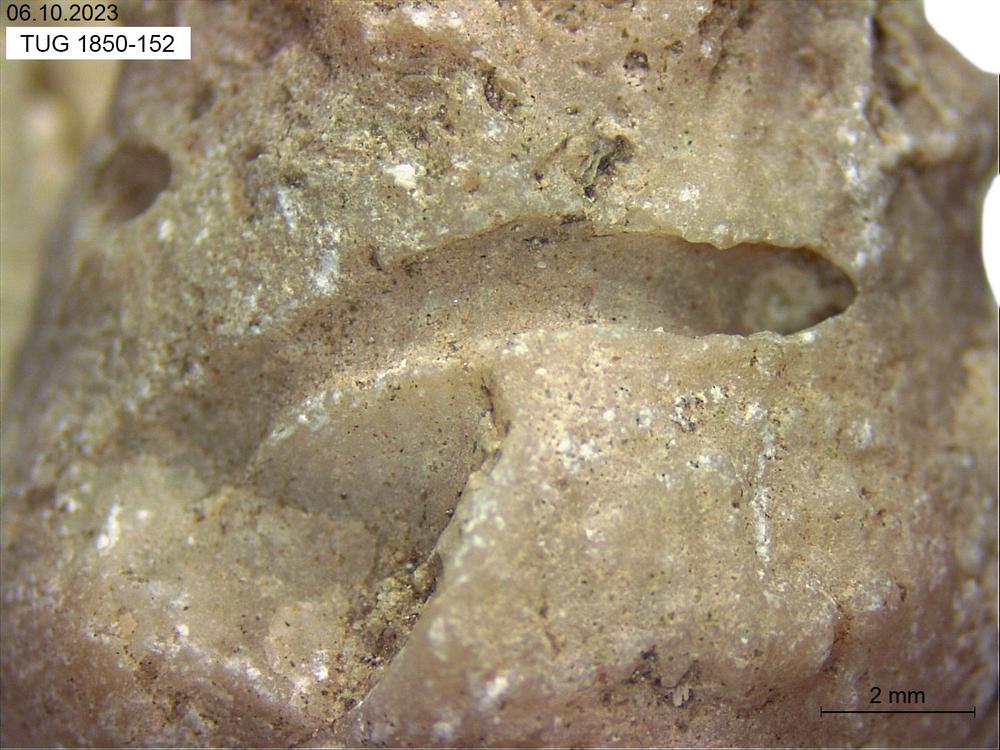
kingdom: Animalia
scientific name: Animalia
